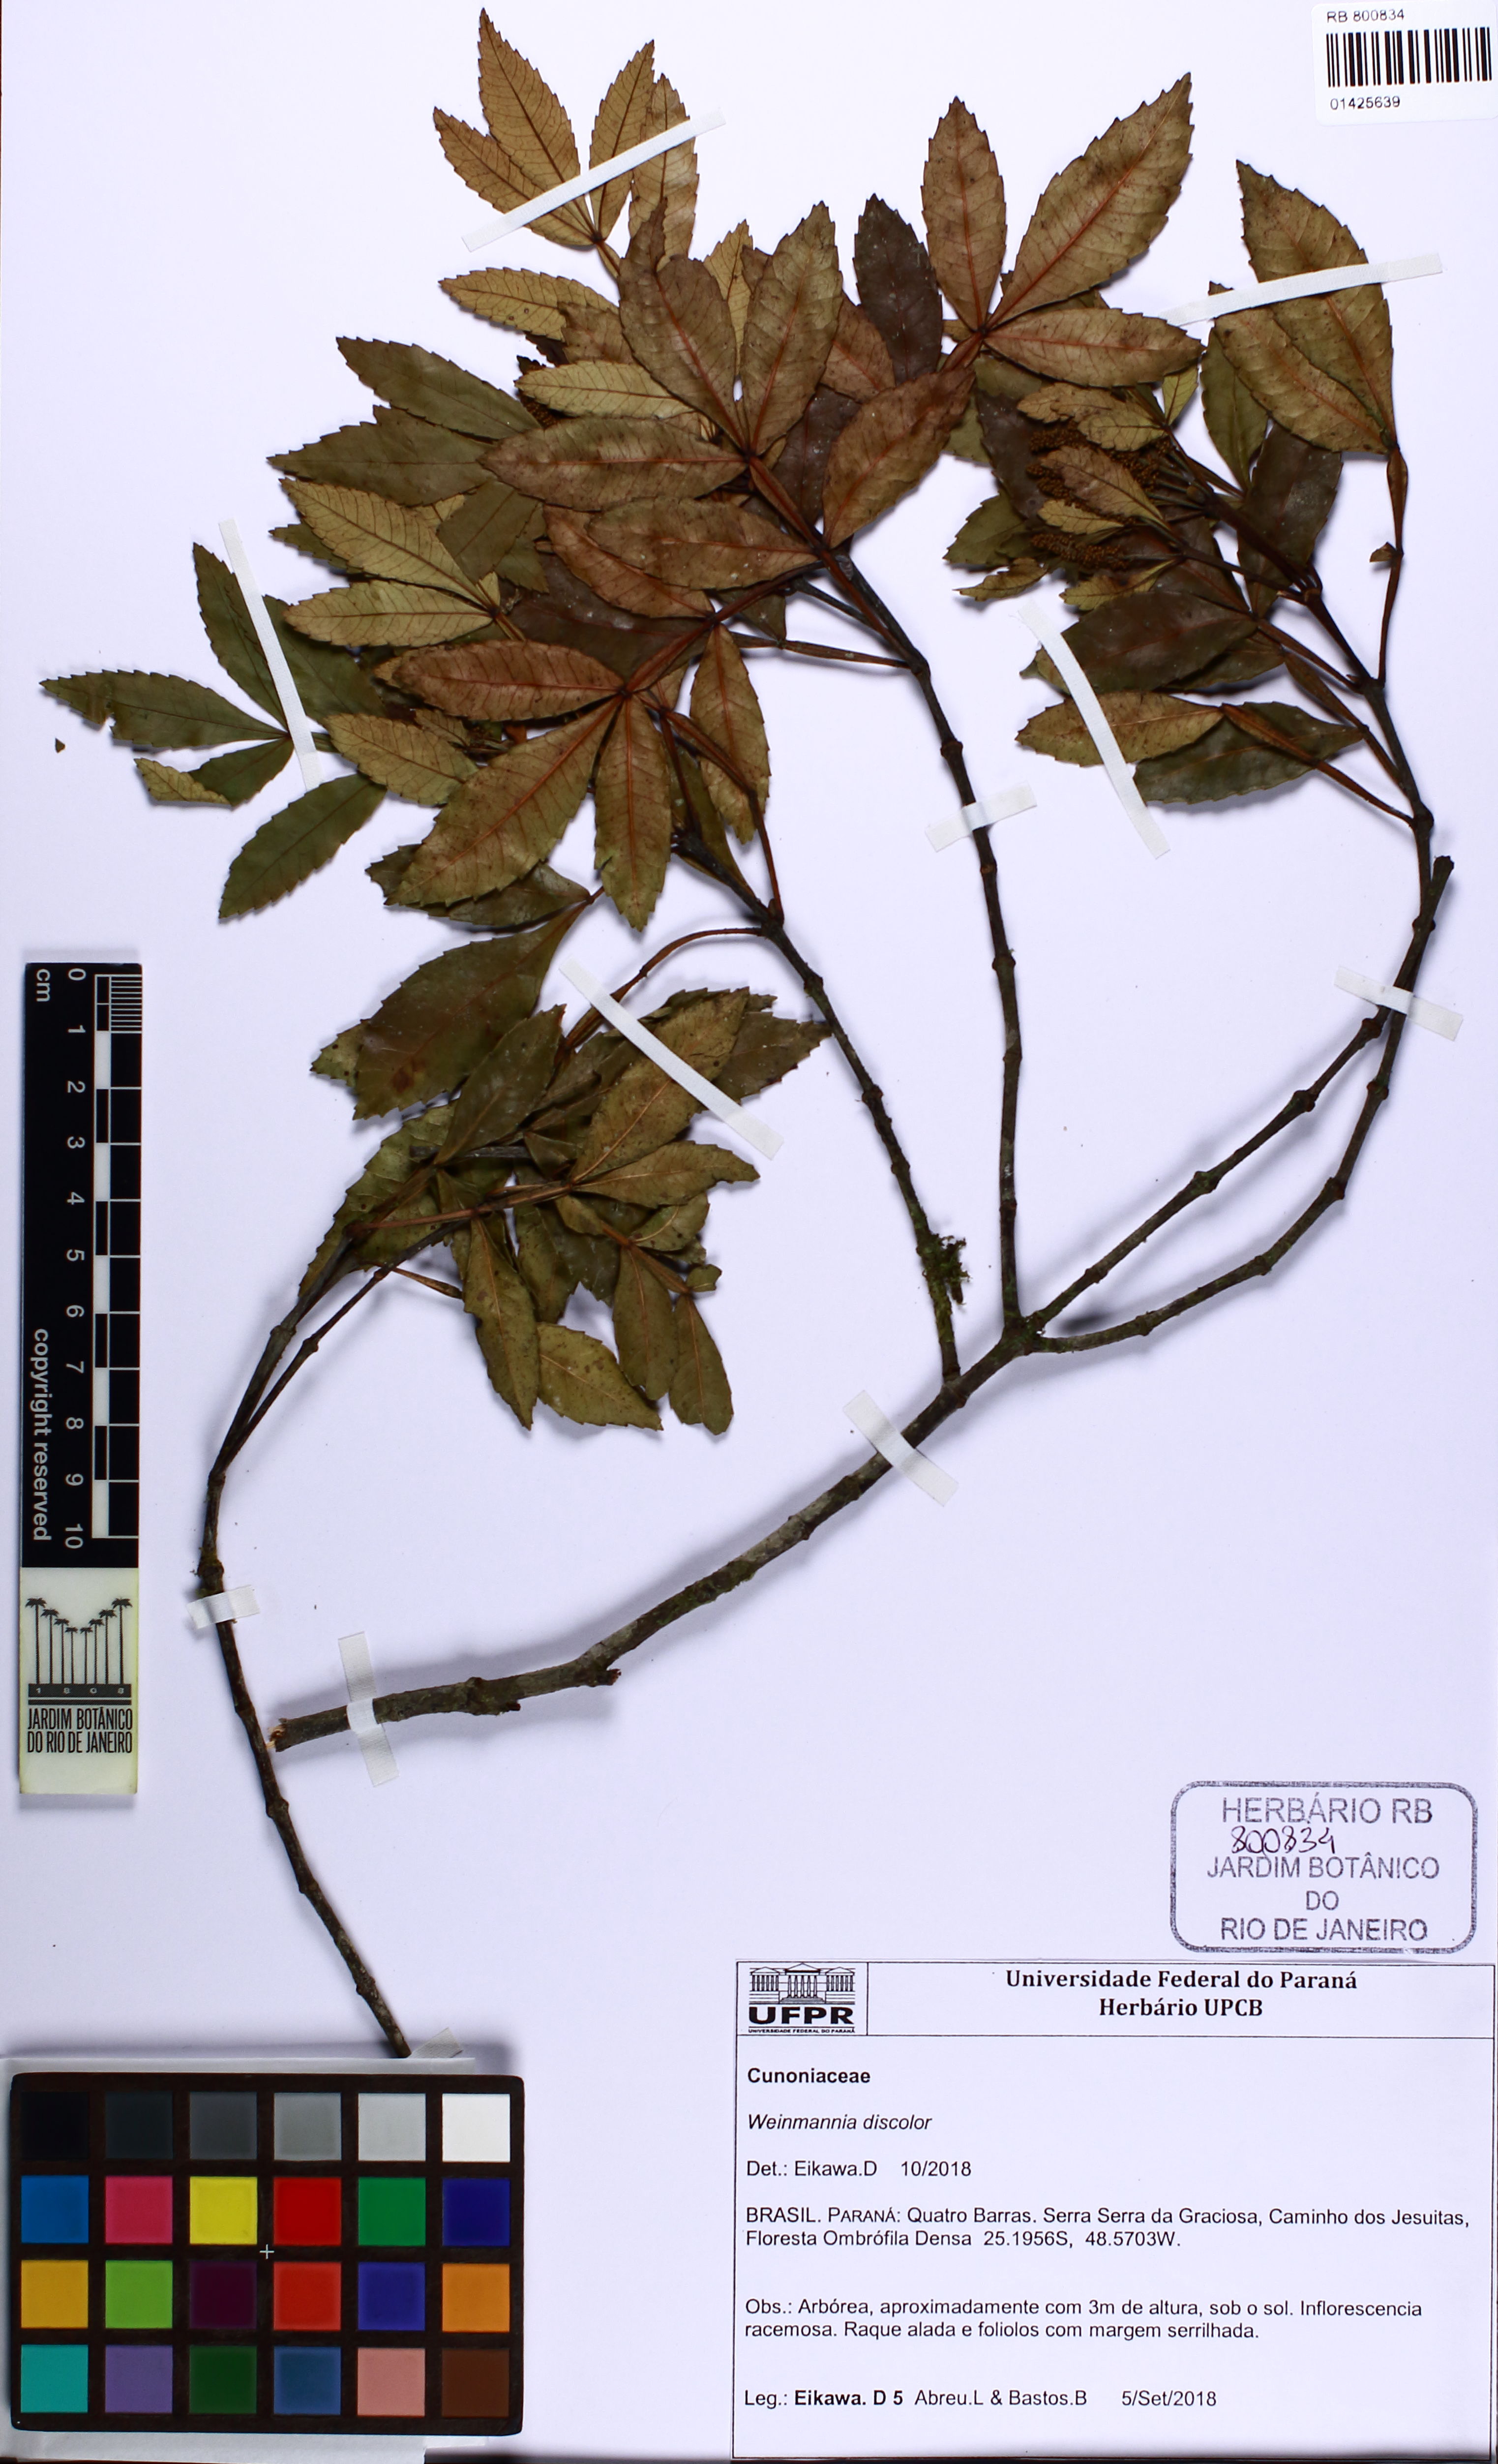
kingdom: Plantae
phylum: Tracheophyta
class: Magnoliopsida
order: Oxalidales
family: Cunoniaceae
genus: Weinmannia
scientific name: Weinmannia discolor
